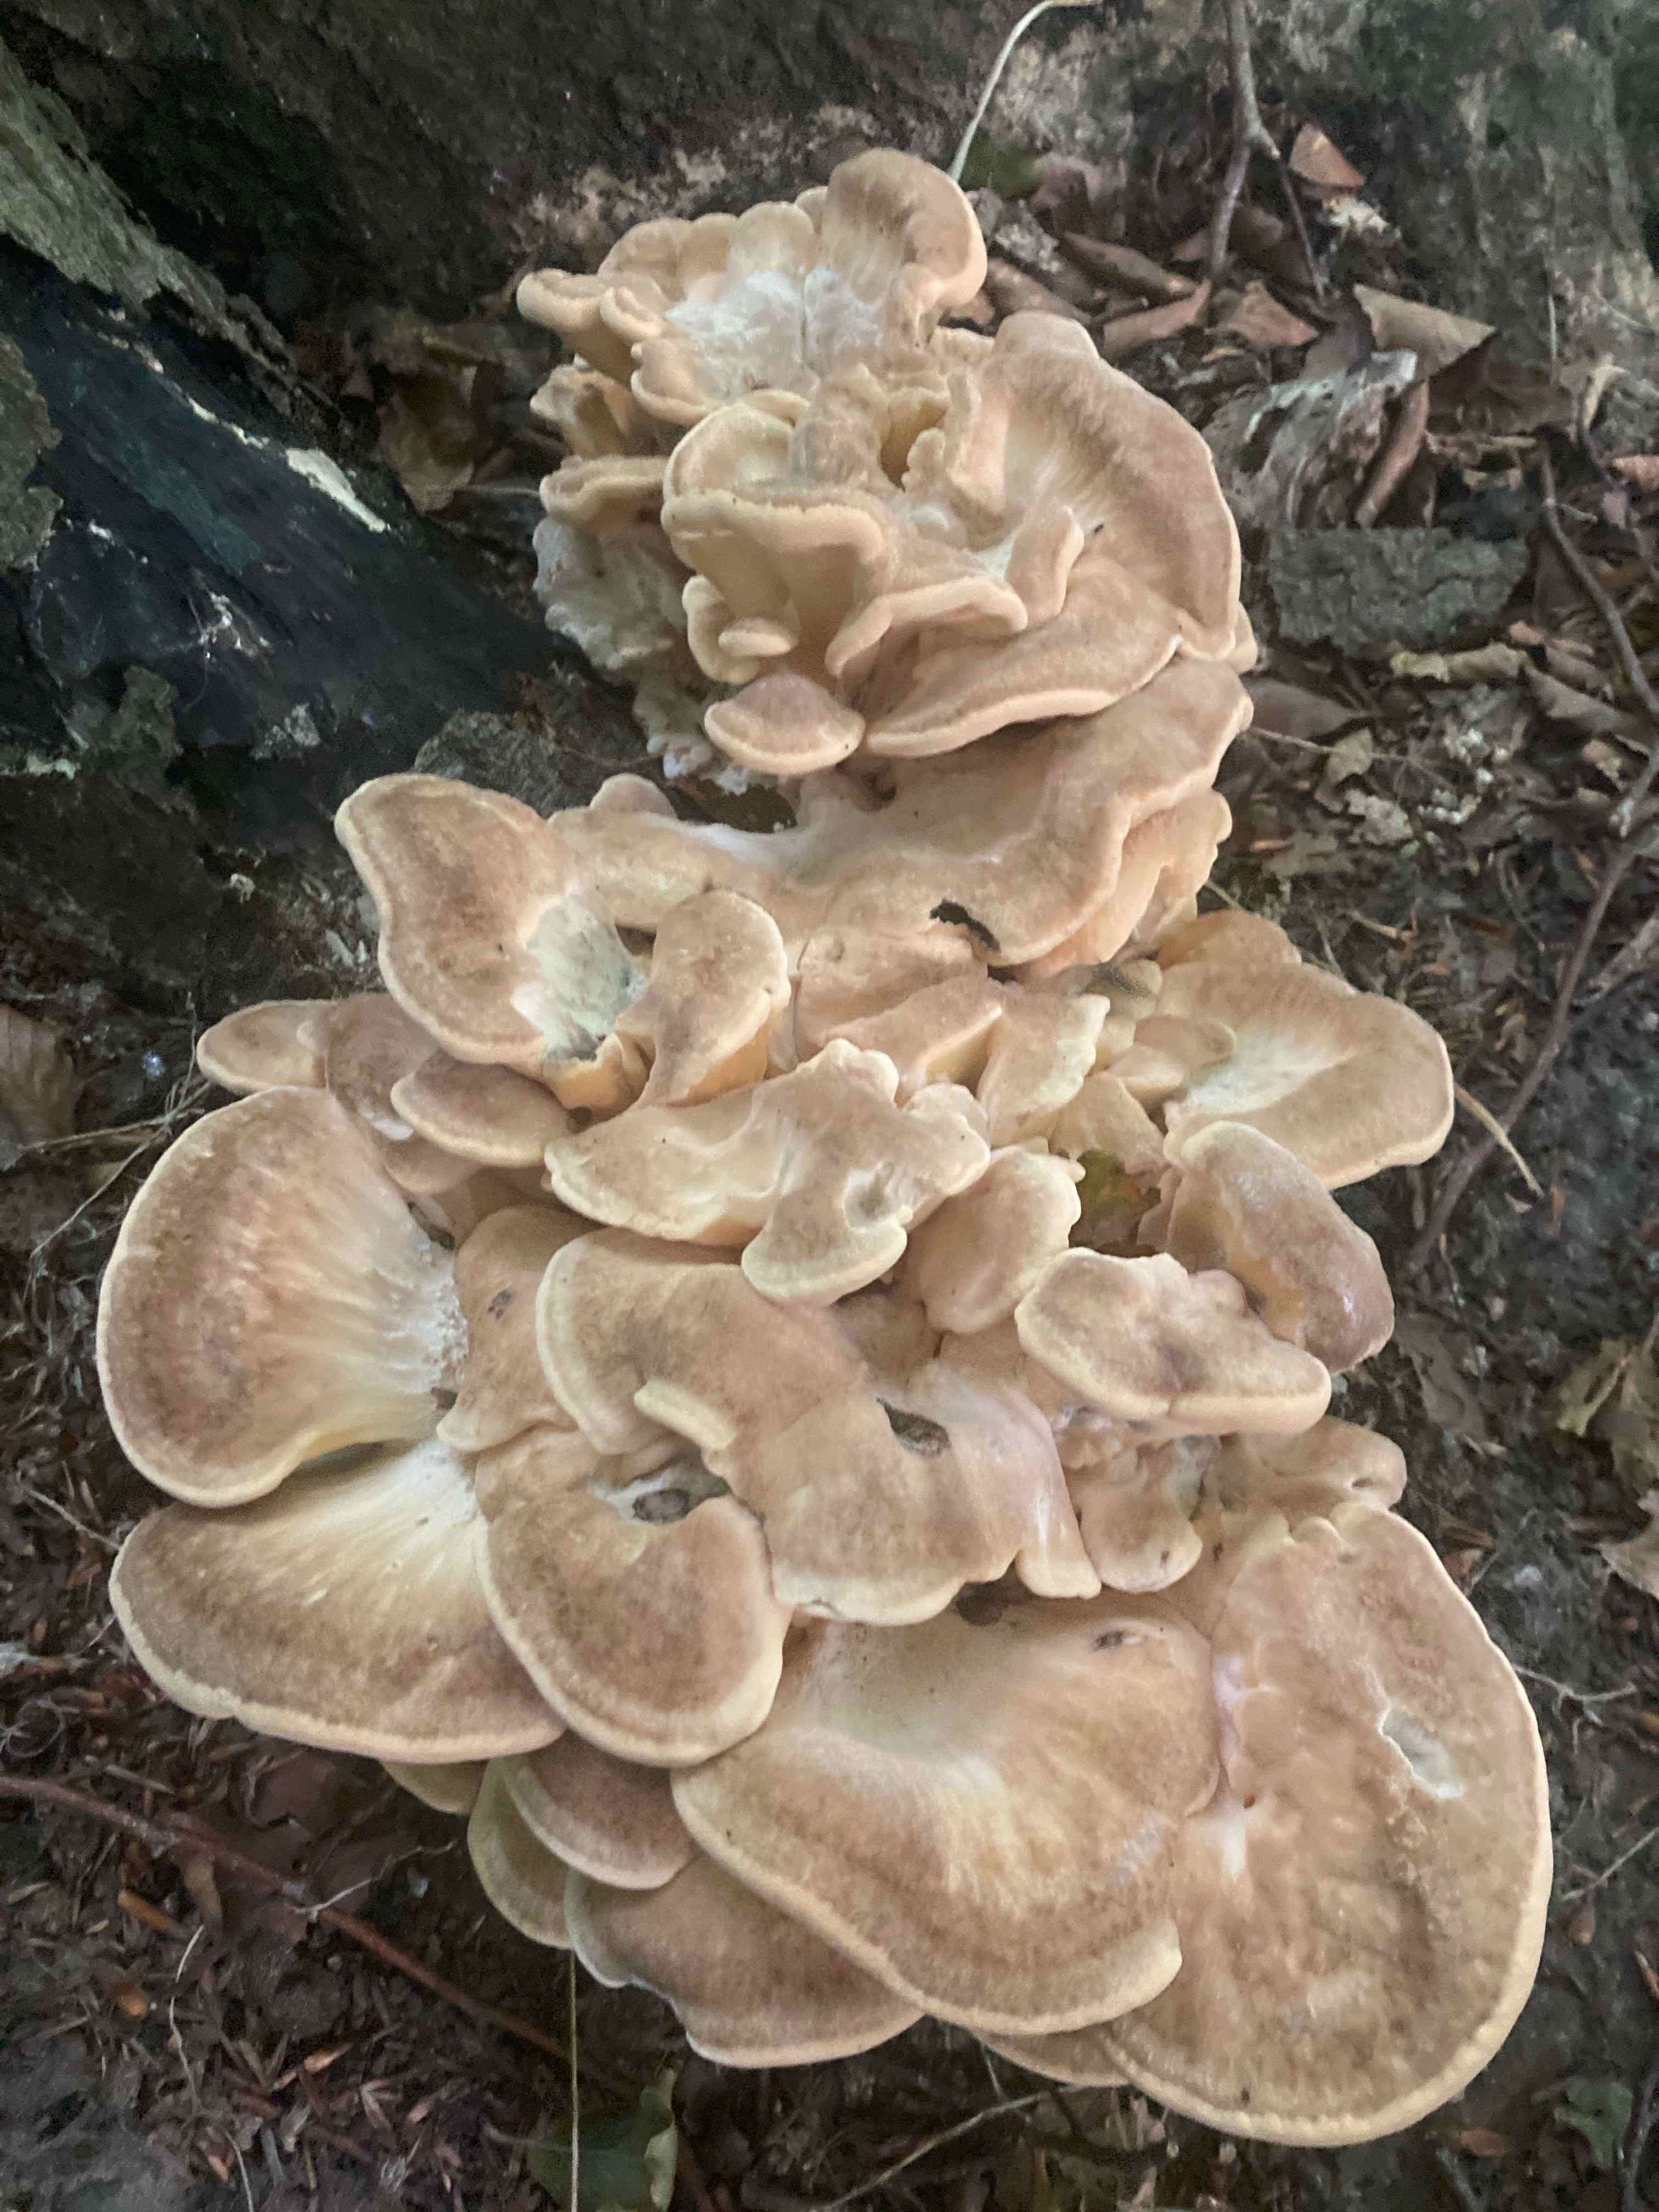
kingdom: Fungi
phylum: Basidiomycota
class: Agaricomycetes
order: Polyporales
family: Meripilaceae
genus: Meripilus
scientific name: Meripilus giganteus
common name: kæmpeporesvamp
